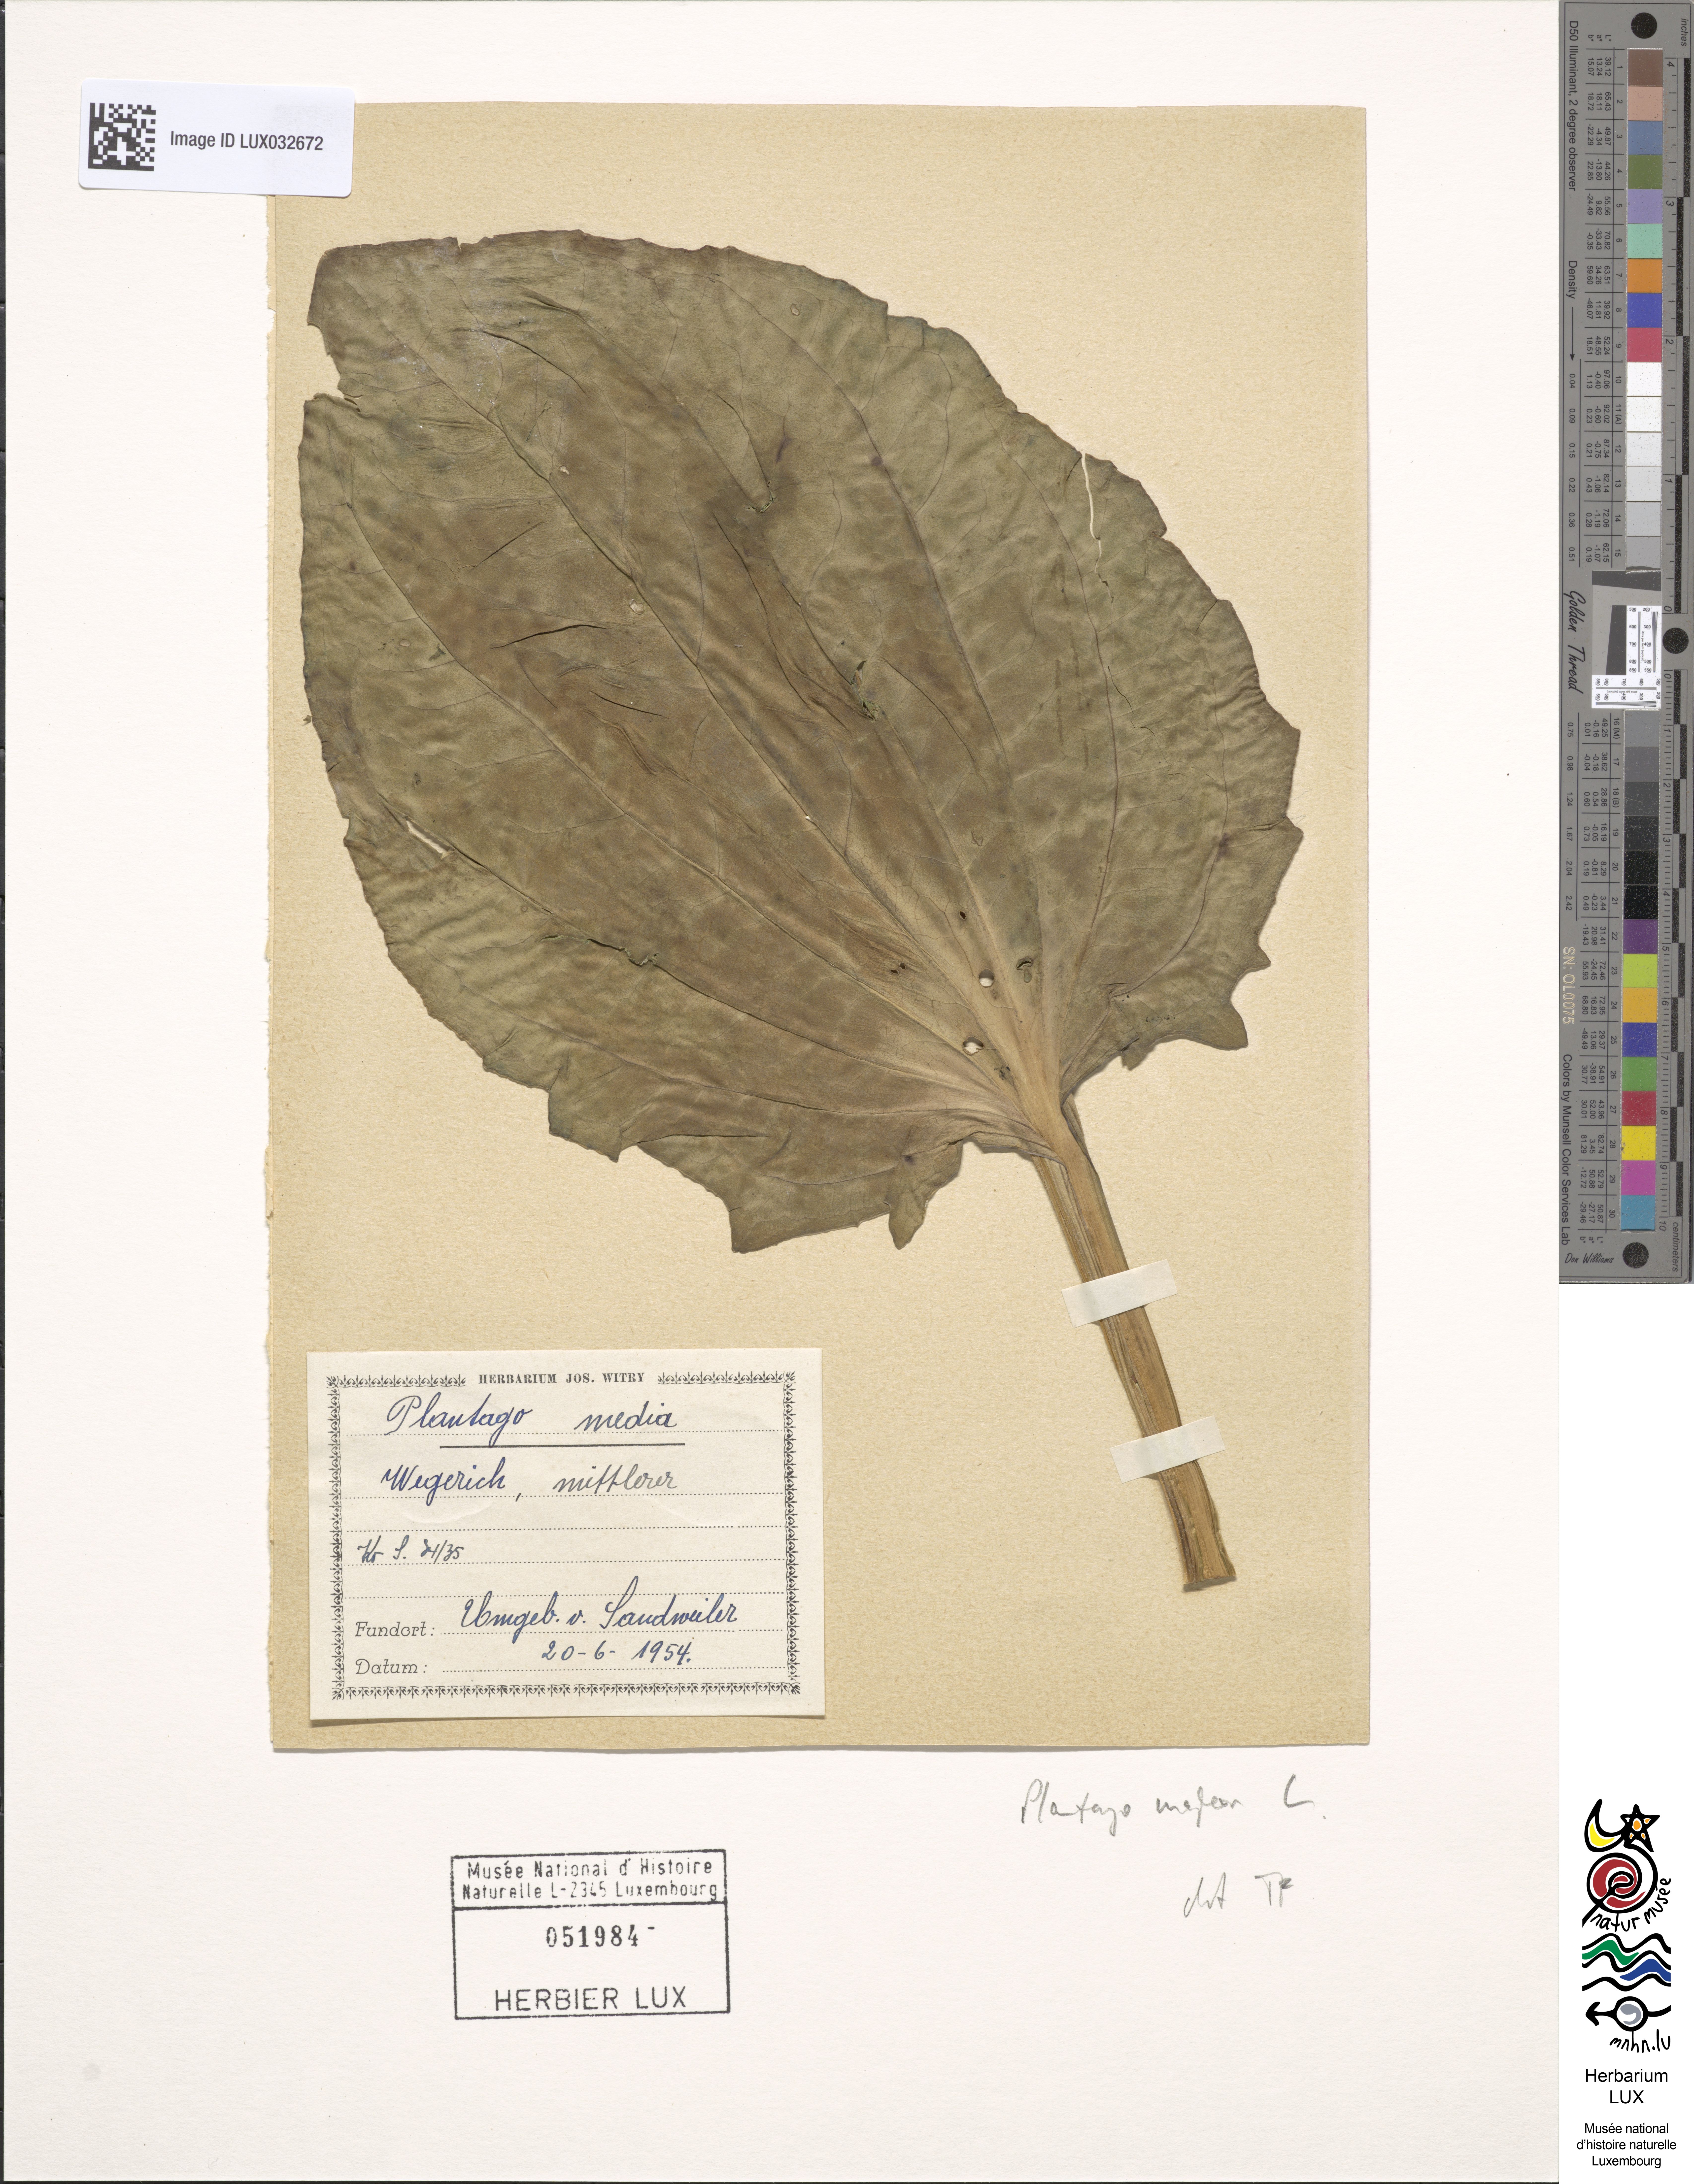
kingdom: Plantae
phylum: Tracheophyta
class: Magnoliopsida
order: Lamiales
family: Plantaginaceae
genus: Plantago
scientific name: Plantago major
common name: Common plantain
